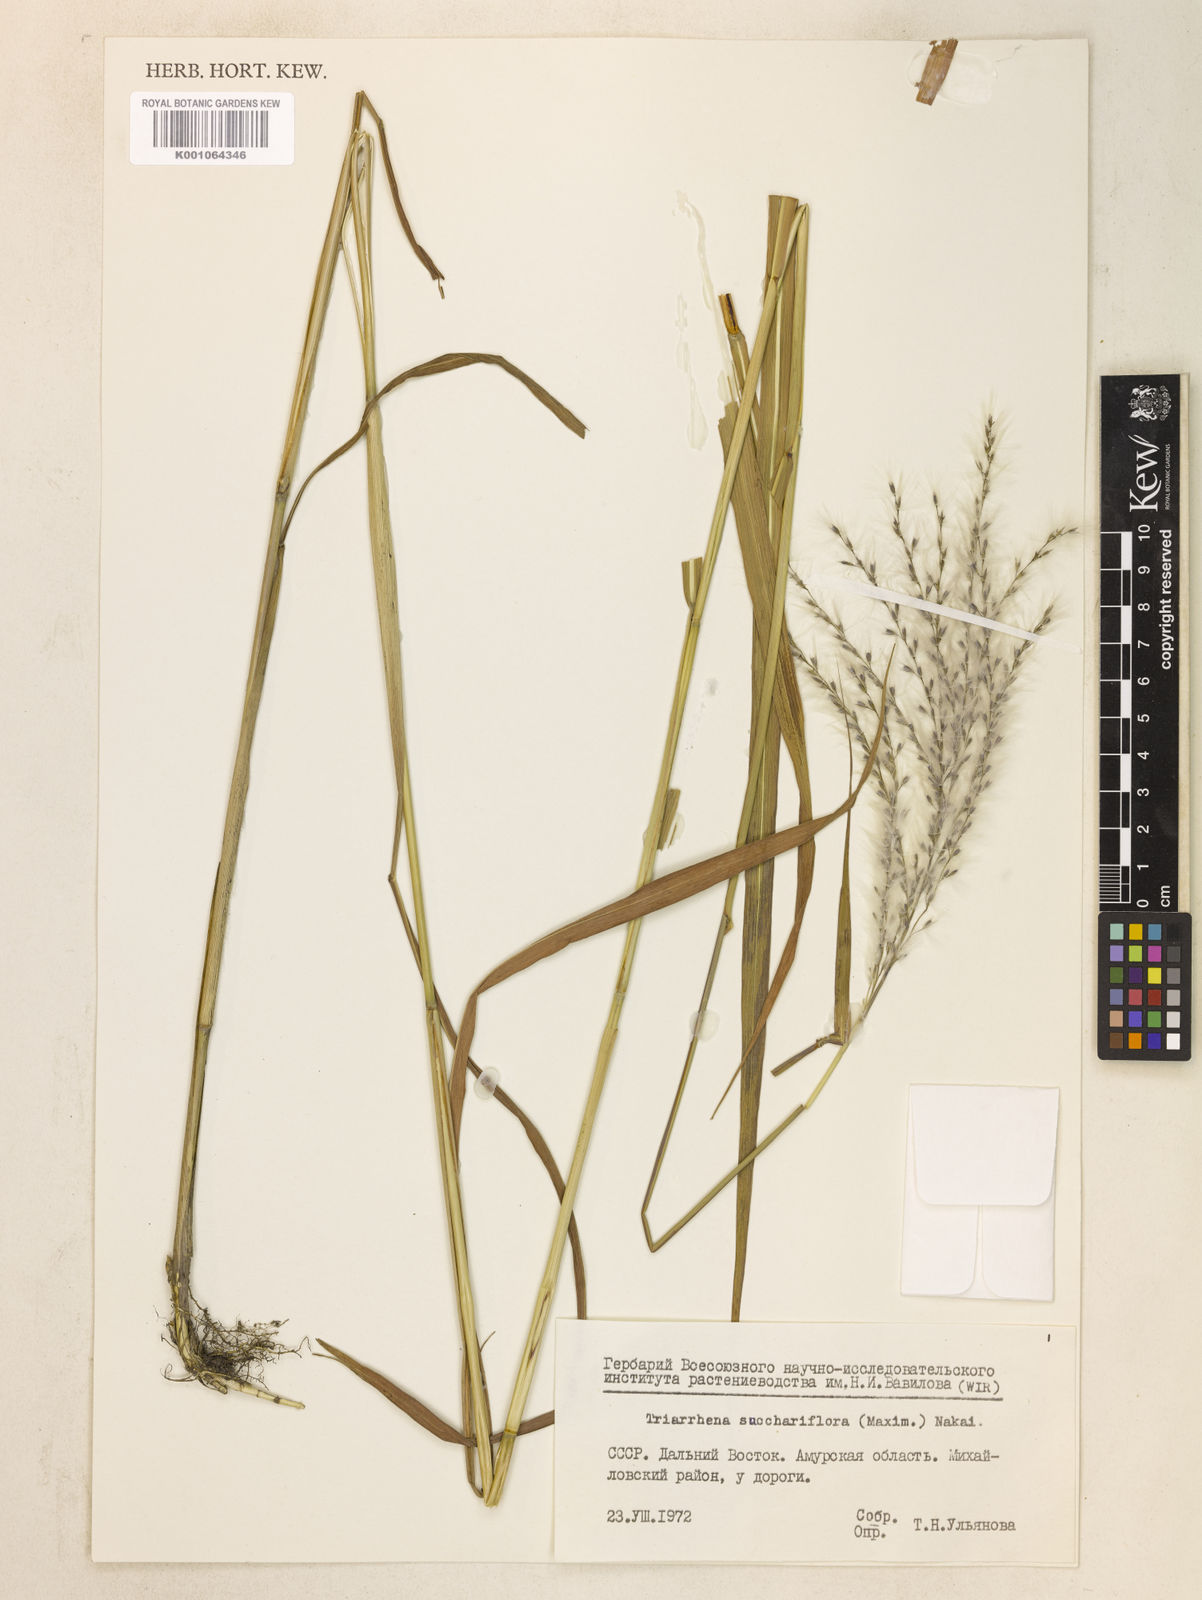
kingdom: Plantae
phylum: Tracheophyta
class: Liliopsida
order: Poales
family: Poaceae
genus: Miscanthus
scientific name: Miscanthus
